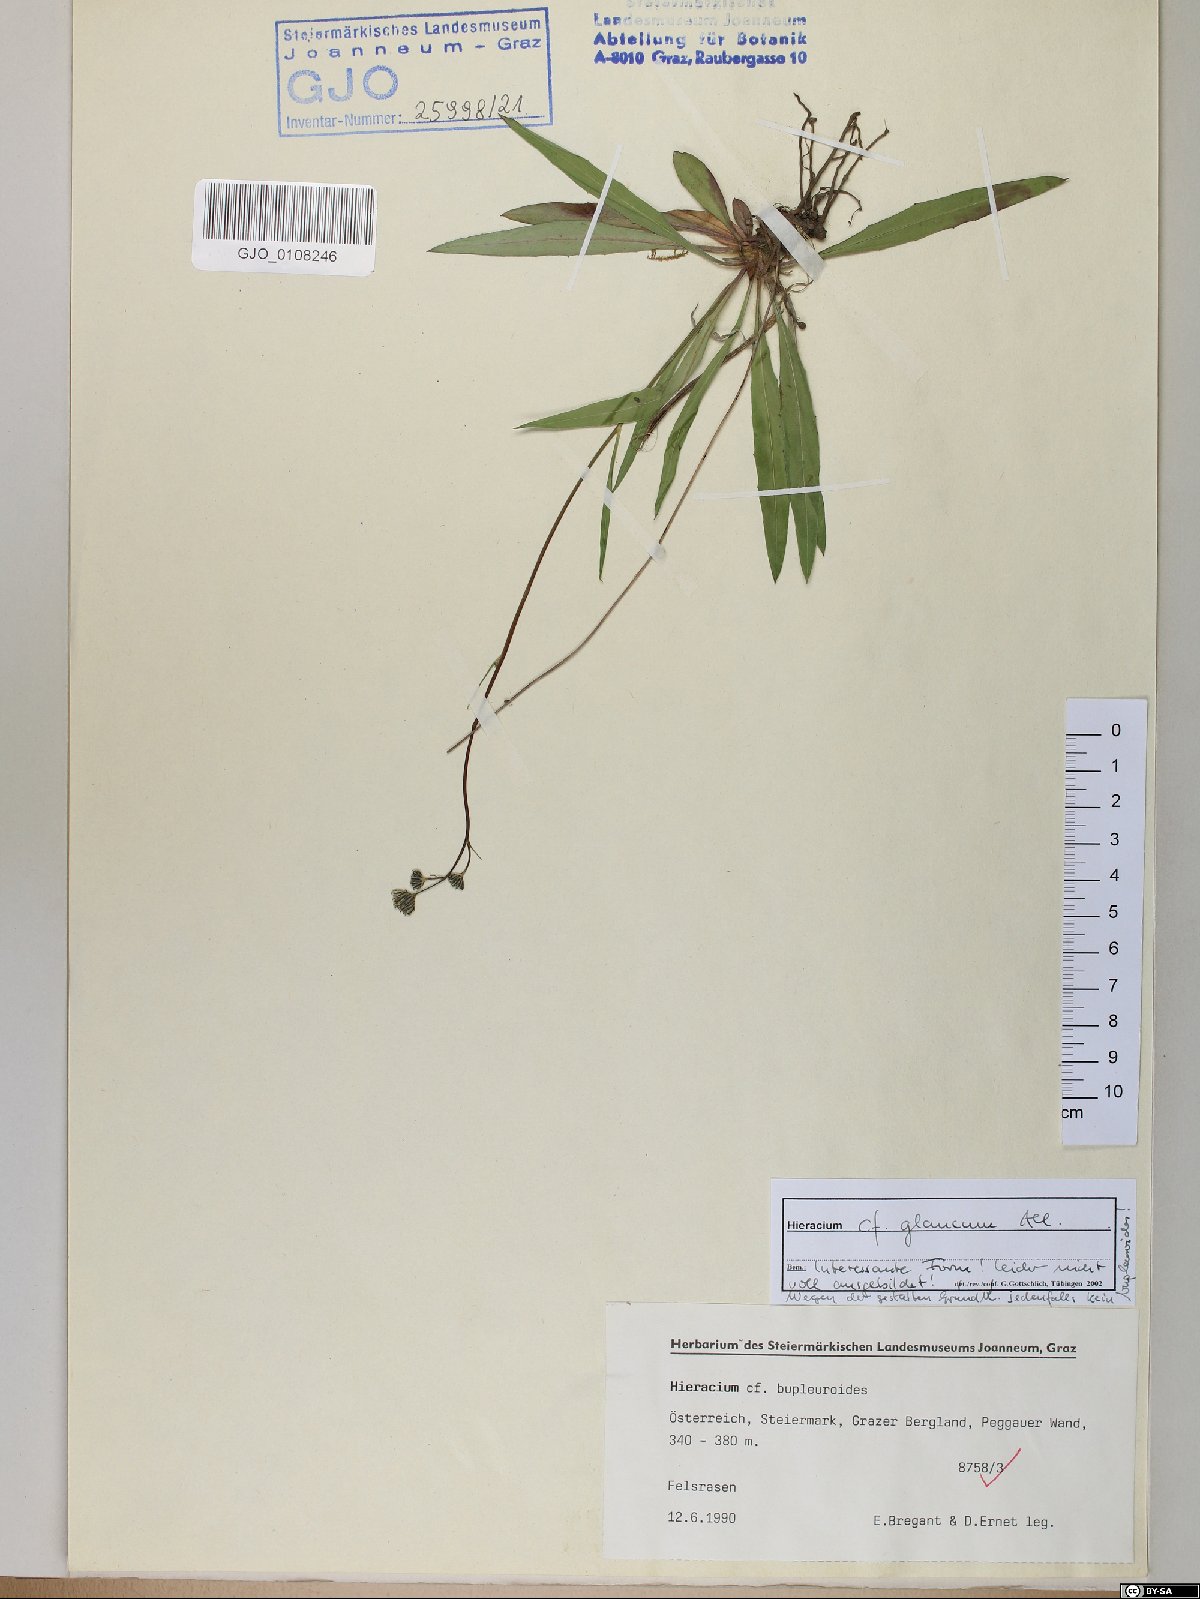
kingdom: Plantae
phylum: Tracheophyta
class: Magnoliopsida
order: Asterales
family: Asteraceae
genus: Hieracium
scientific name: Hieracium glaucum
